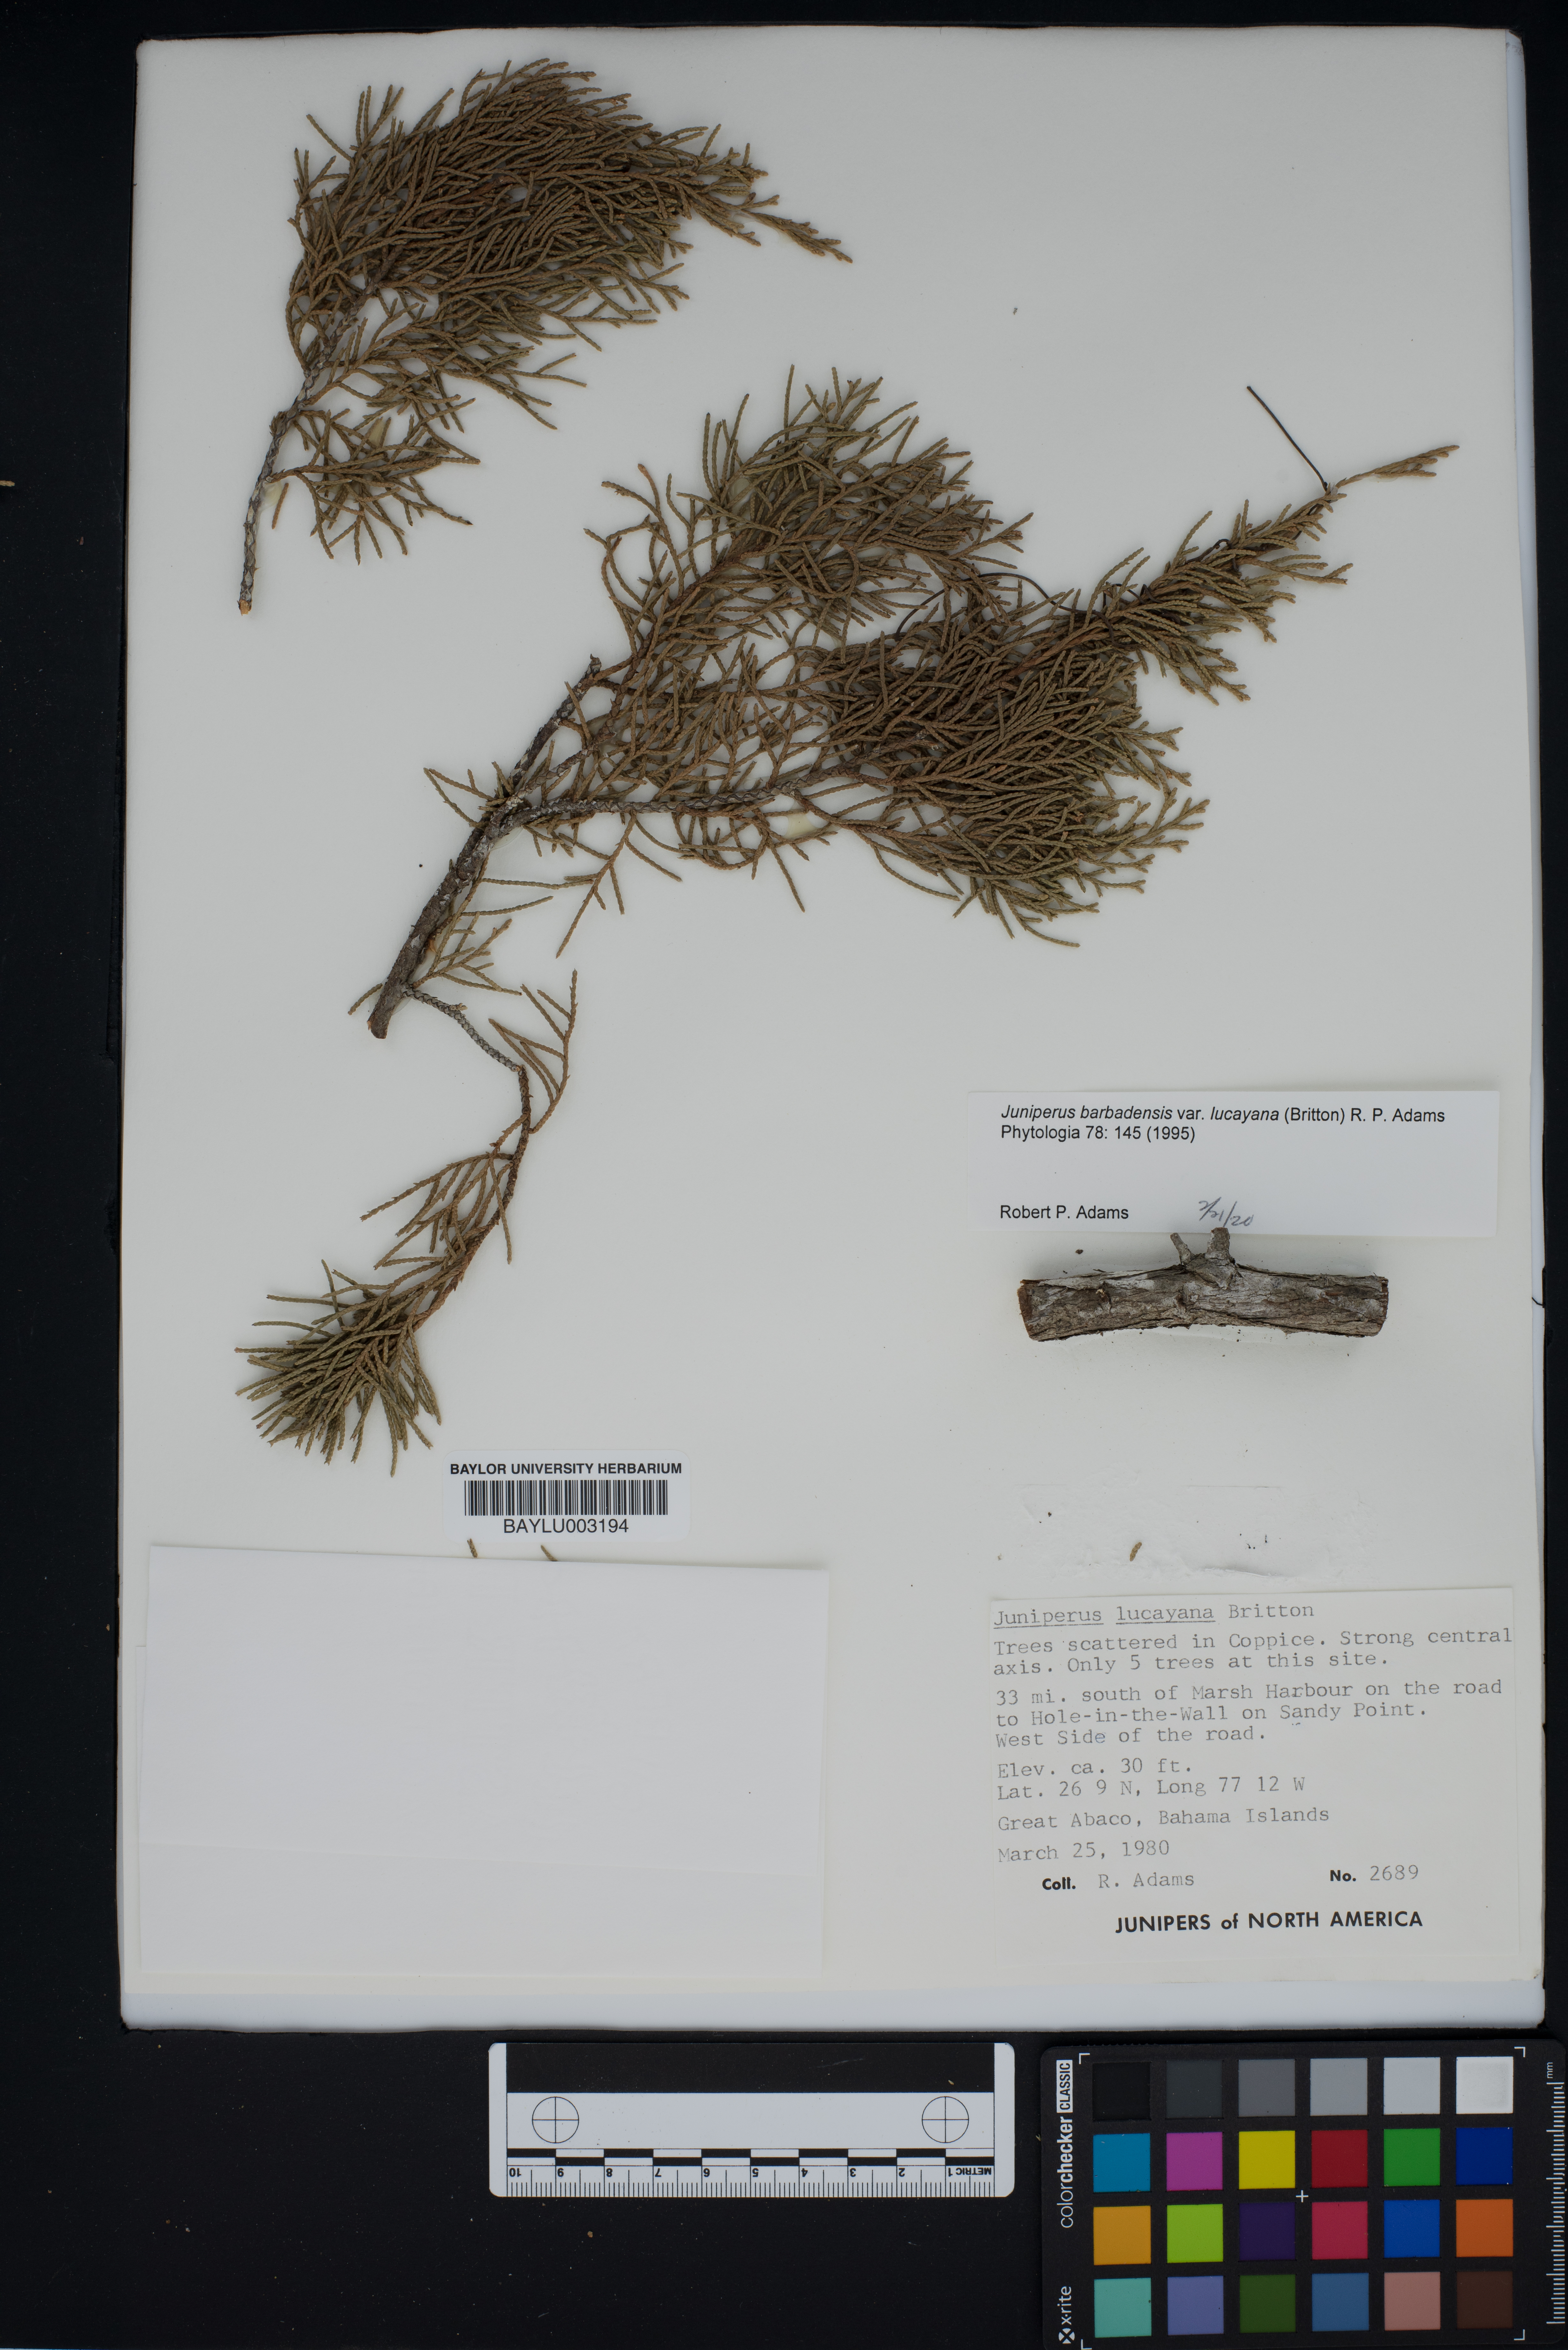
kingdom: Plantae
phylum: Tracheophyta
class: Pinopsida
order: Pinales
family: Cupressaceae
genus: Juniperus
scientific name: Juniperus barbadensis
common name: West indies juniper
